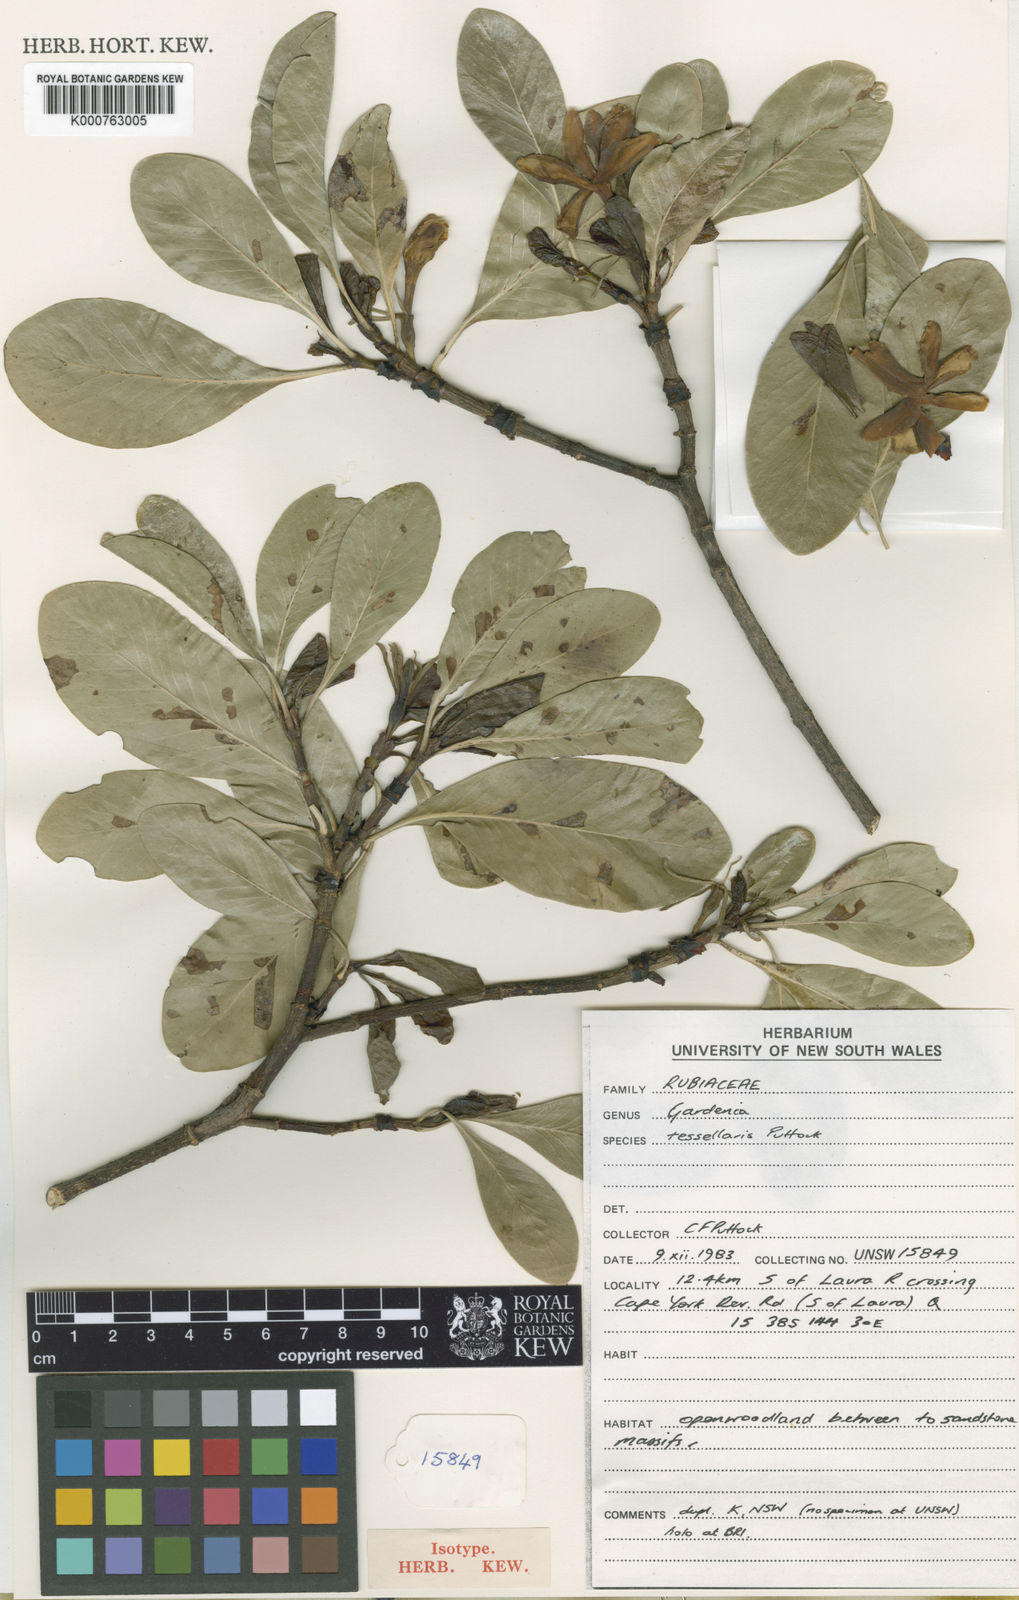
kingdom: Plantae
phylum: Tracheophyta
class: Magnoliopsida
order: Gentianales
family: Rubiaceae
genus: Gardenia
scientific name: Gardenia tessellaris
